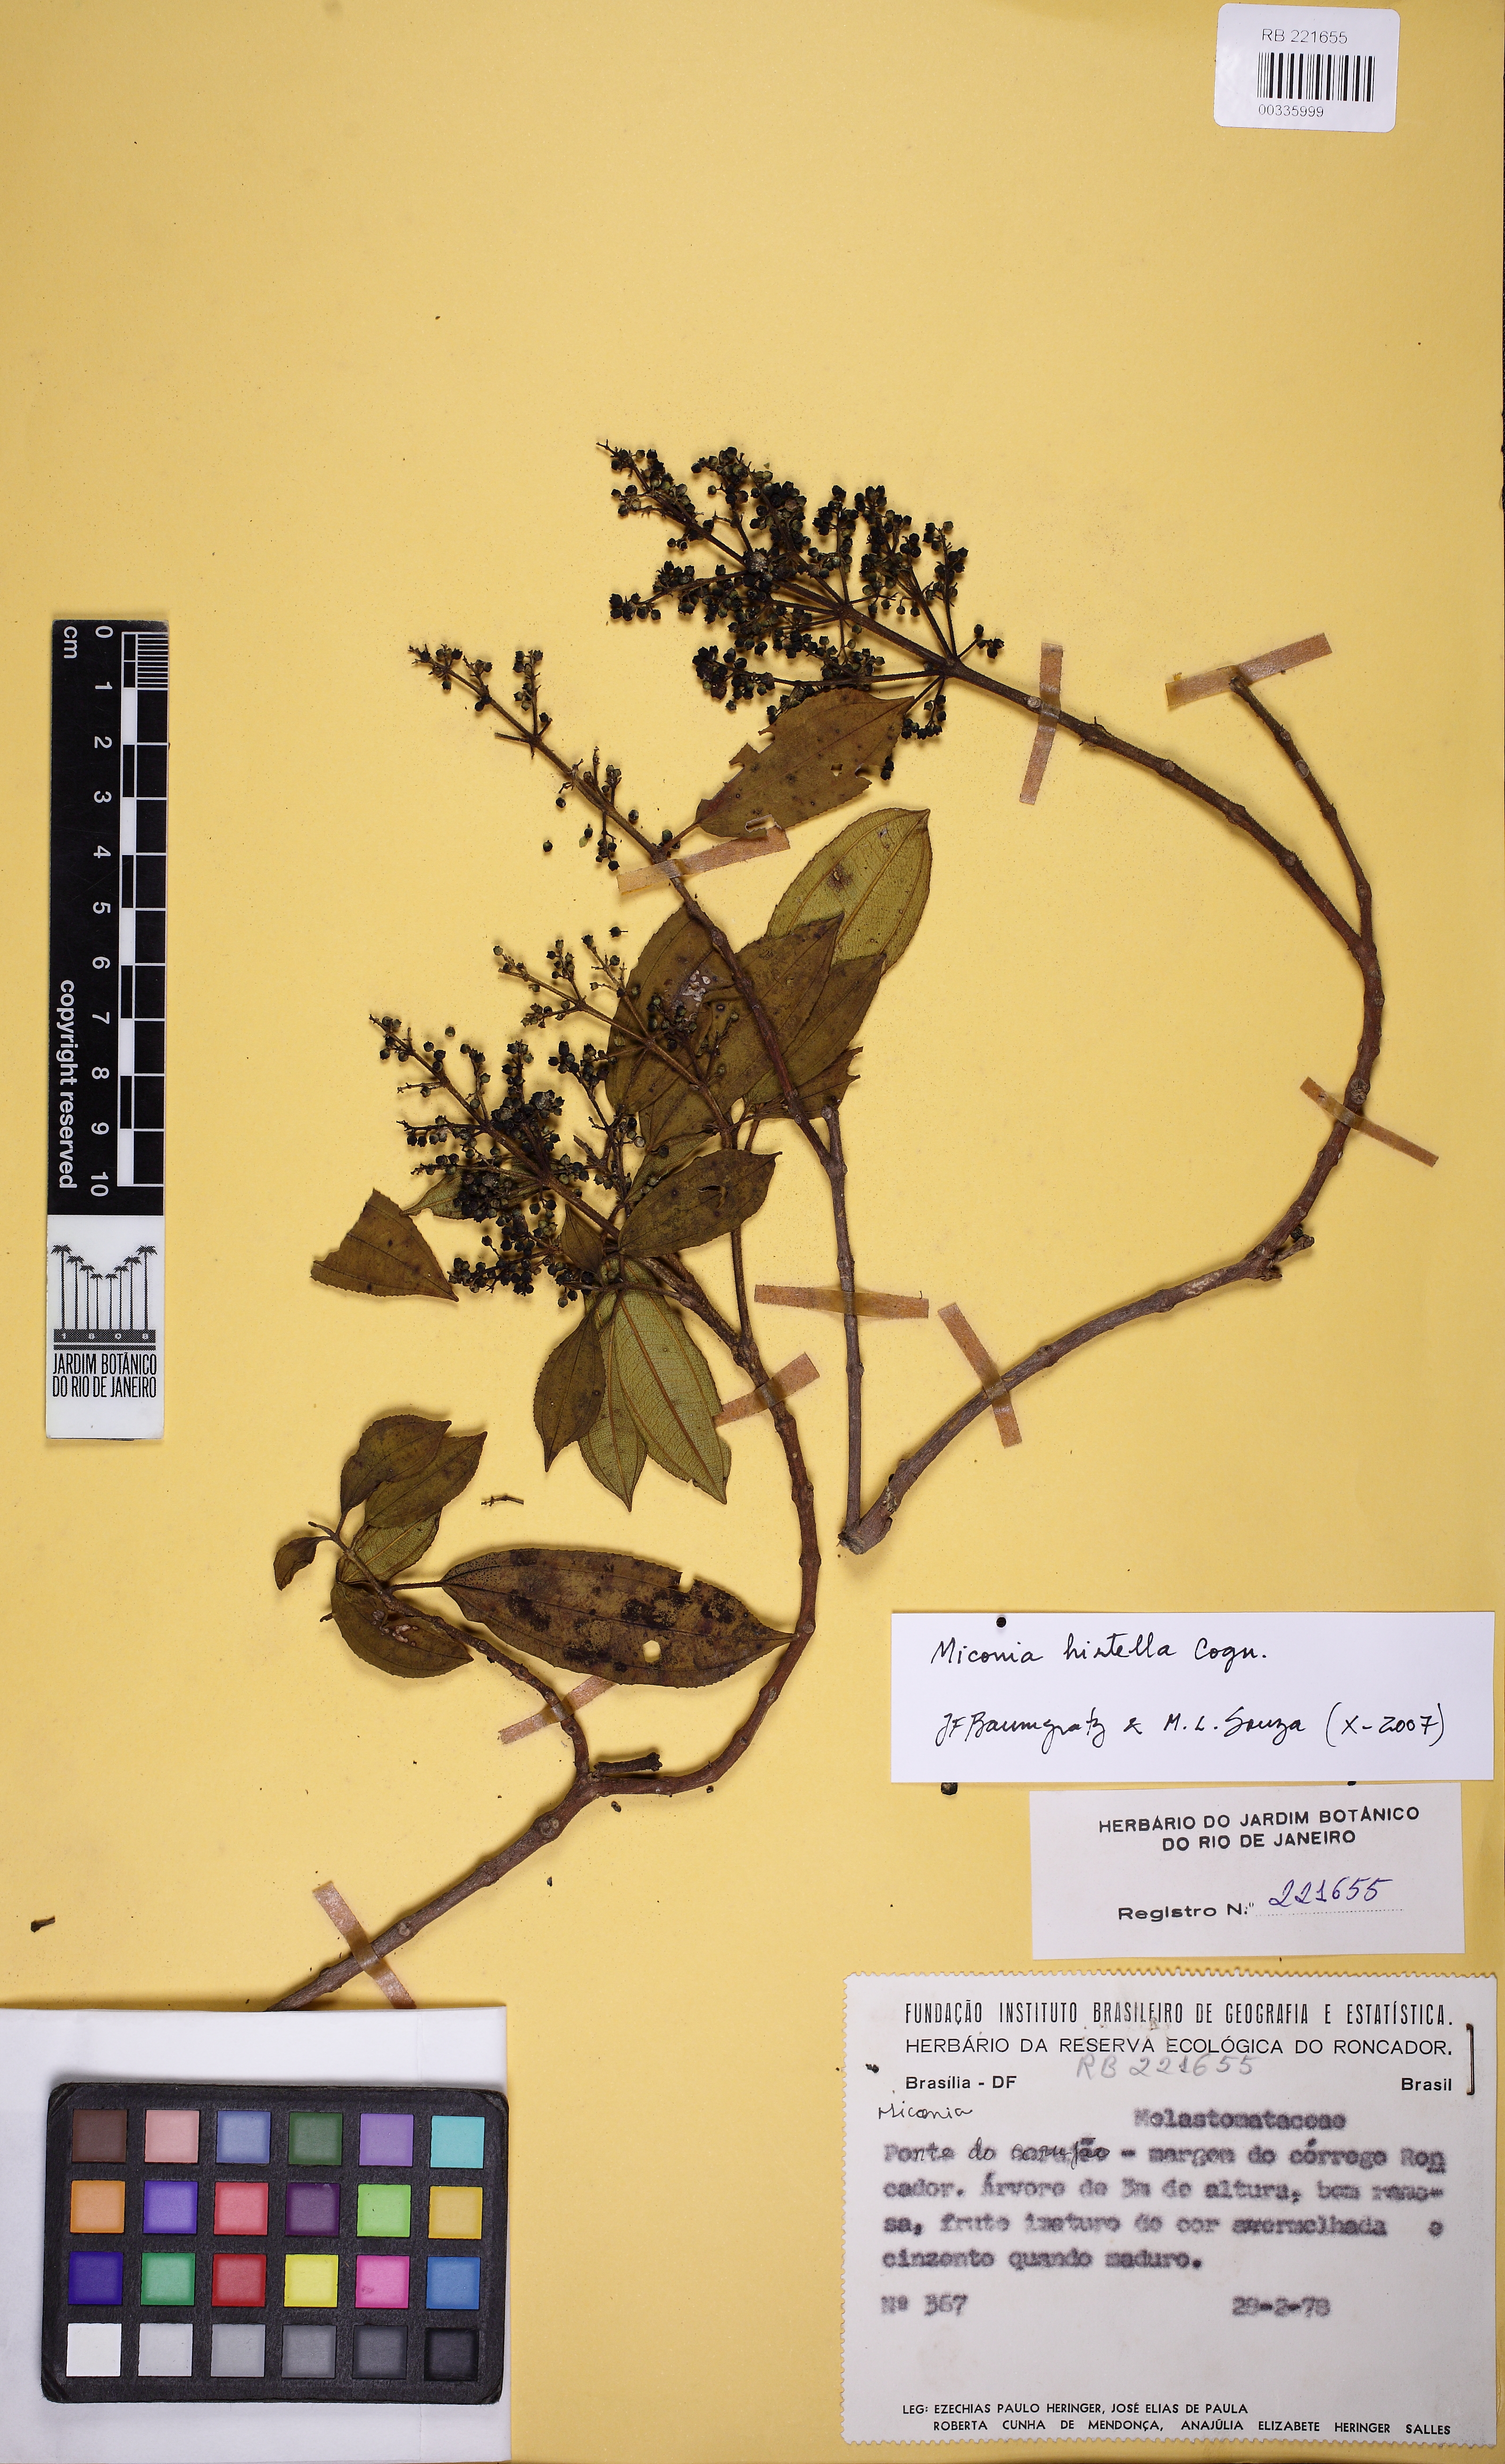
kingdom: Plantae
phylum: Tracheophyta
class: Magnoliopsida
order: Myrtales
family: Melastomataceae
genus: Miconia
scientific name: Miconia hirta
